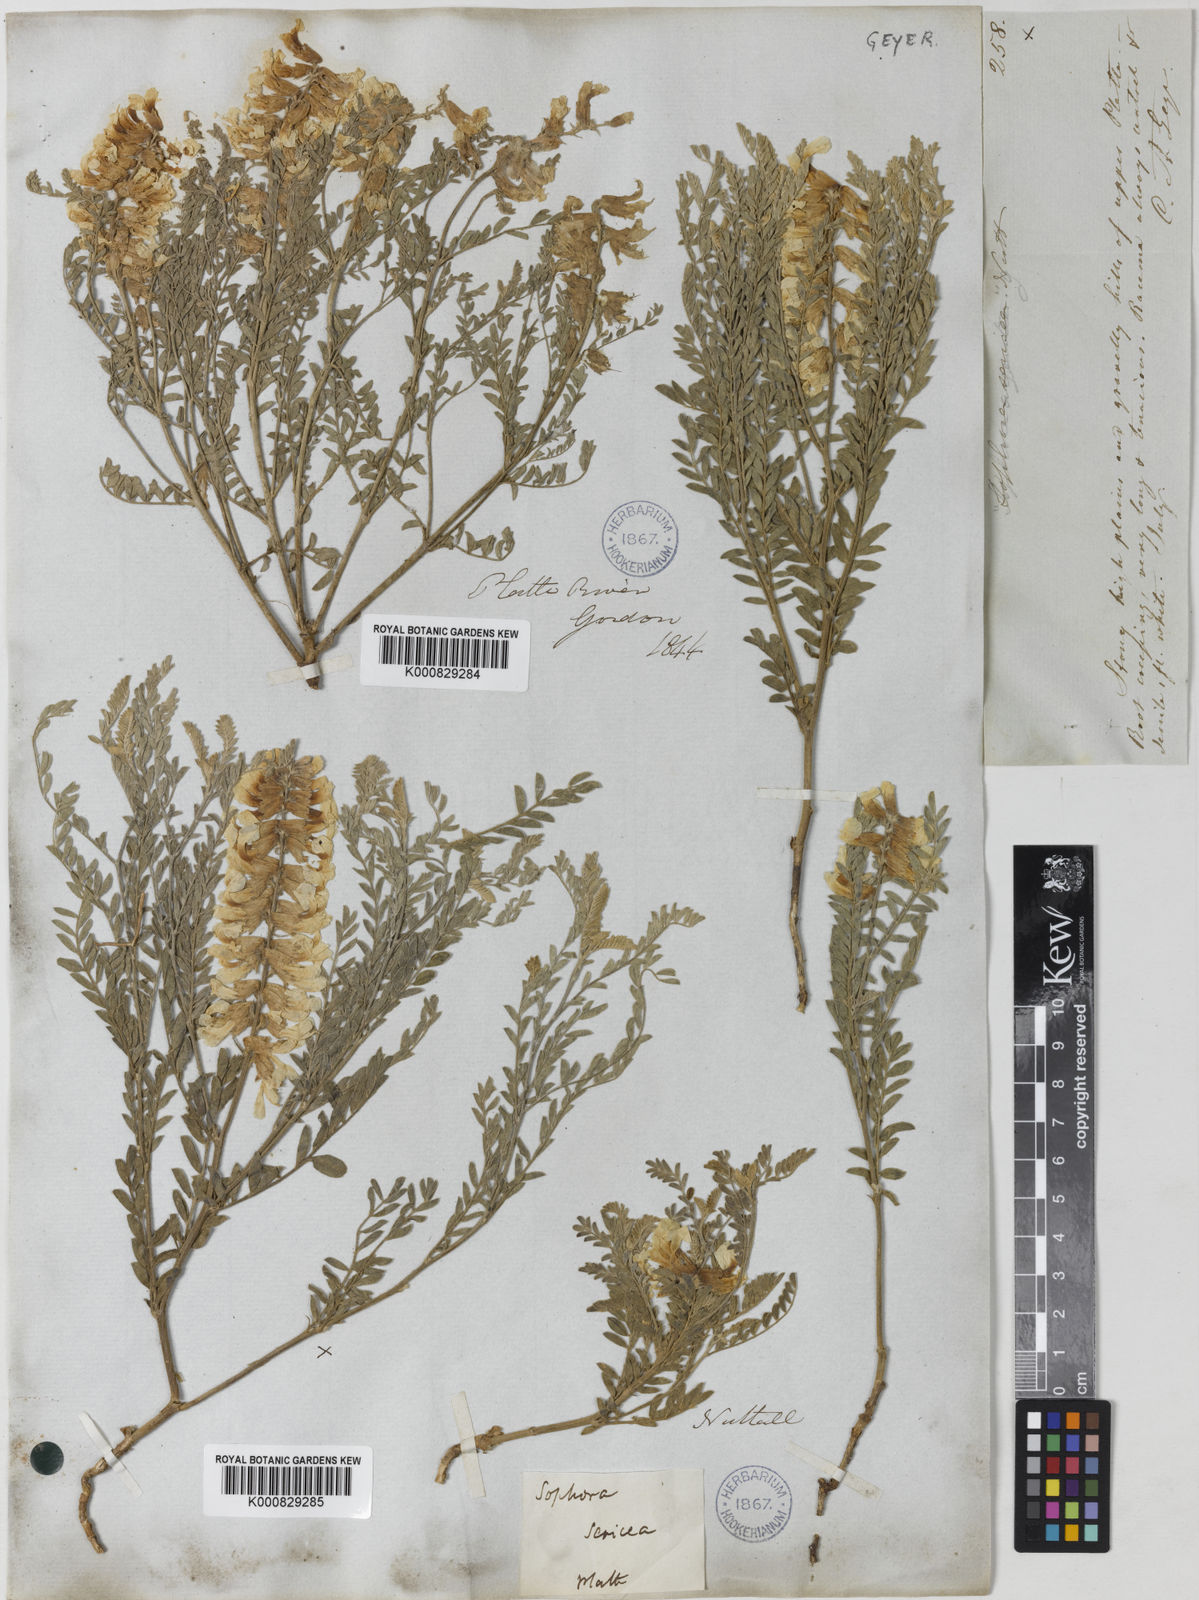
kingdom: Plantae
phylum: Tracheophyta
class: Magnoliopsida
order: Fabales
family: Fabaceae
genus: Sophora
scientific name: Sophora nuttalliana
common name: Silky sophora
